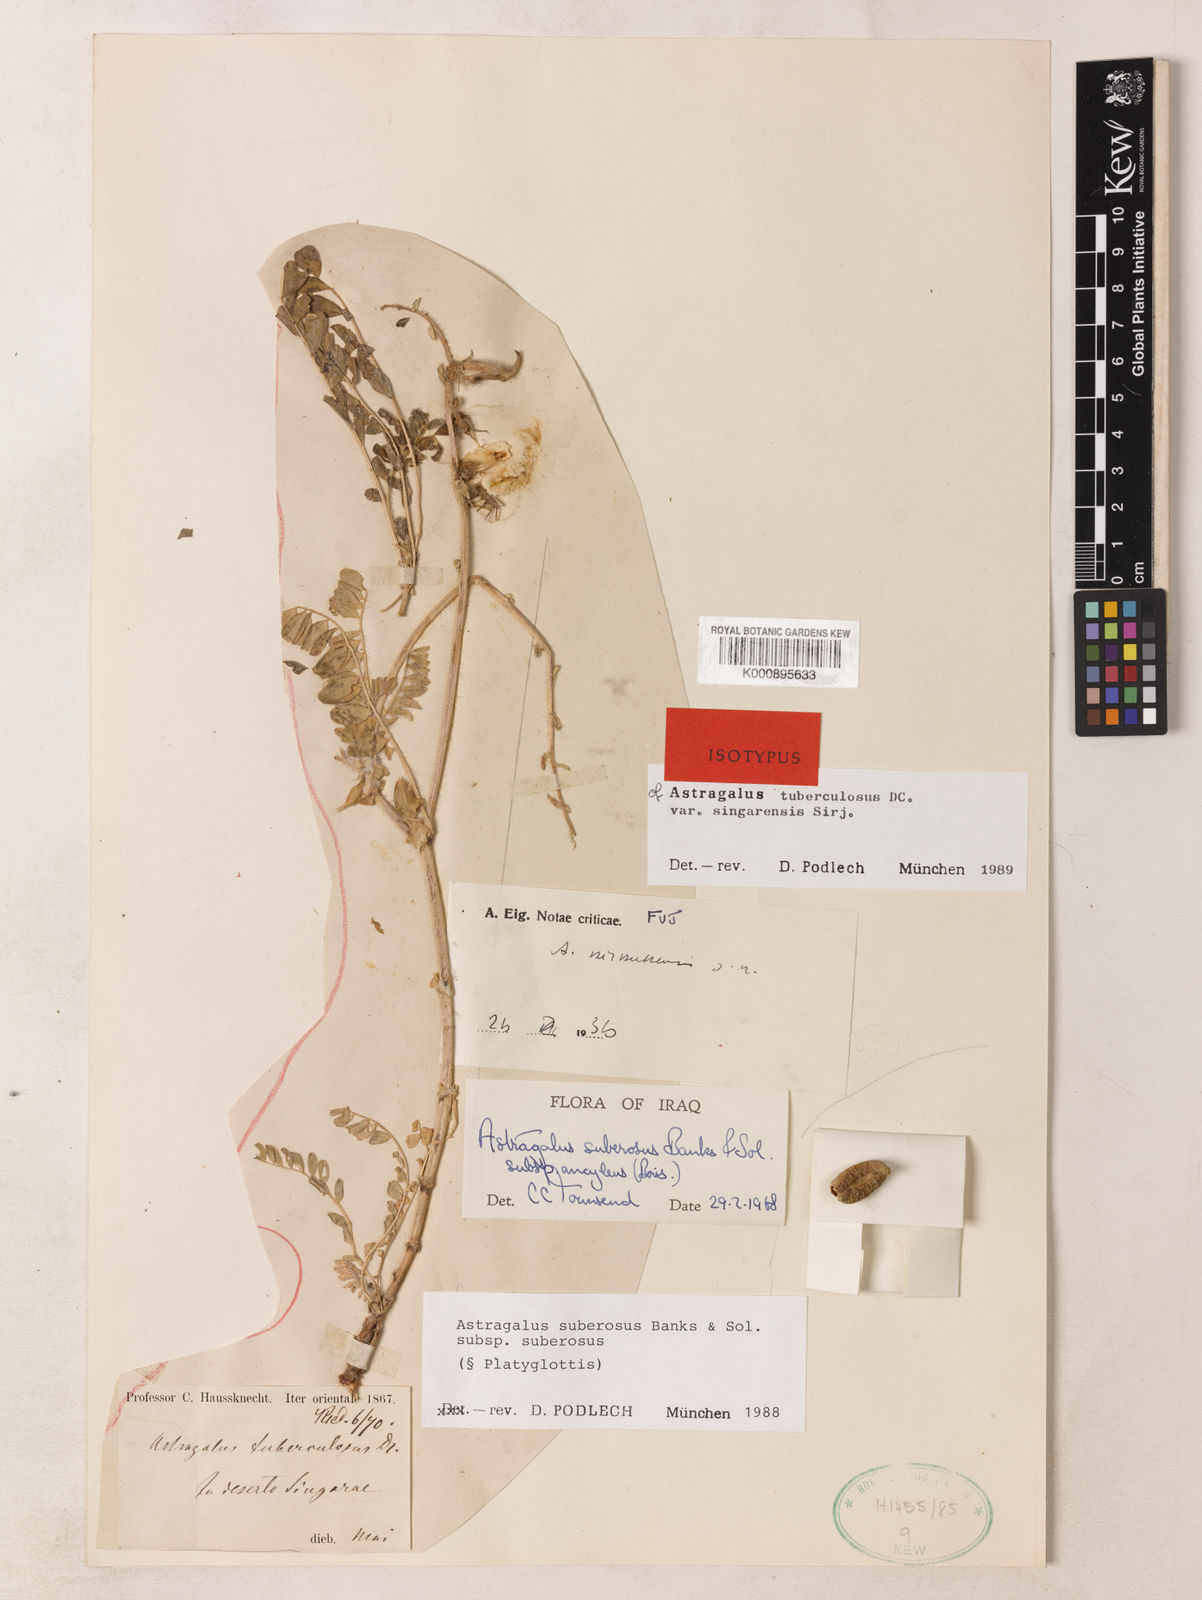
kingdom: Plantae
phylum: Tracheophyta
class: Magnoliopsida
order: Fabales
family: Fabaceae
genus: Astragalus
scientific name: Astragalus suberosus
